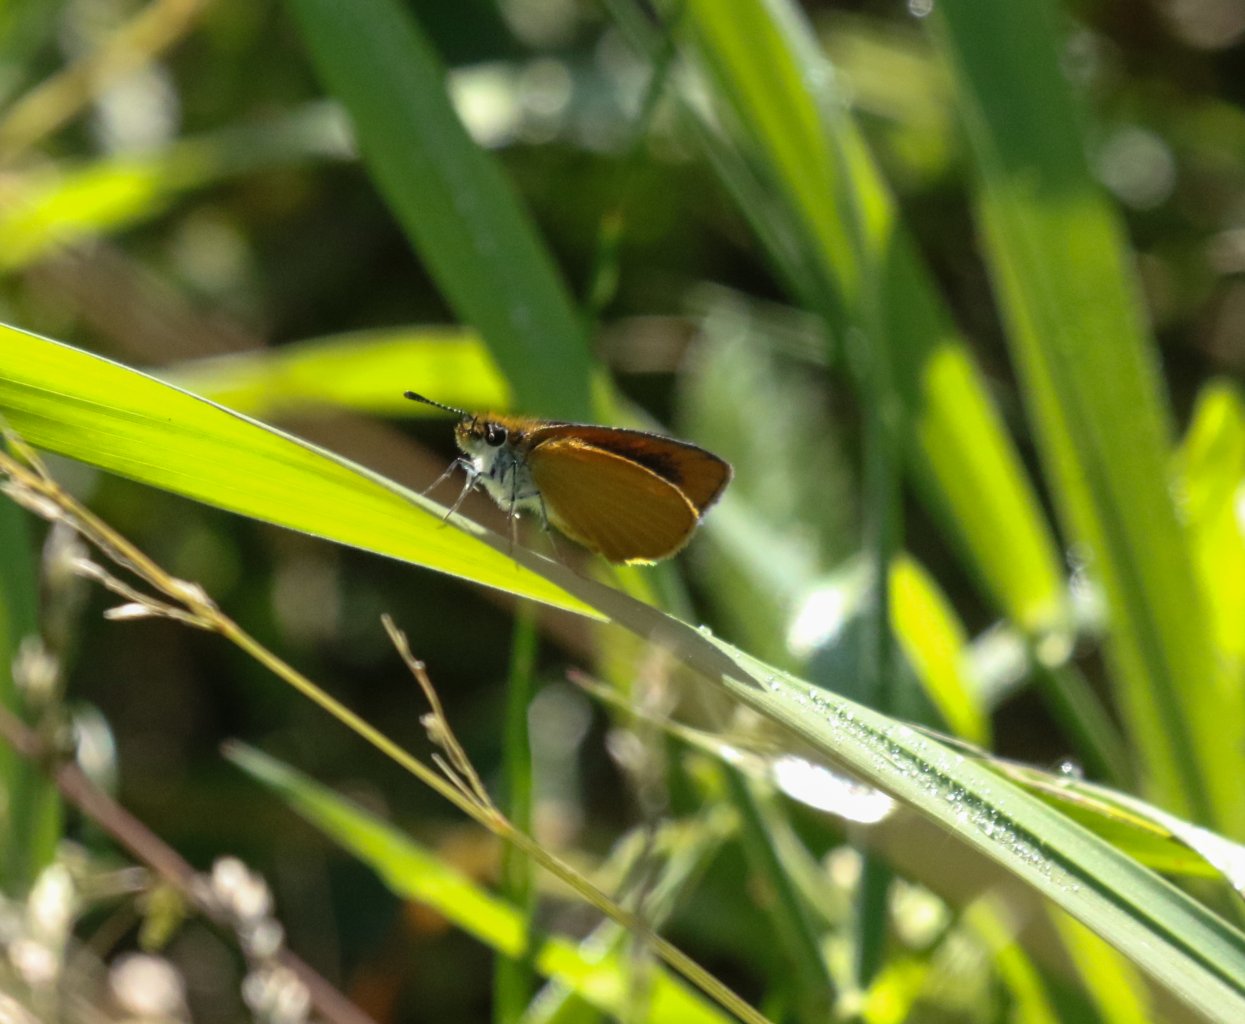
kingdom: Animalia
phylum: Arthropoda
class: Insecta
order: Lepidoptera
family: Hesperiidae
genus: Ancyloxypha
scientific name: Ancyloxypha numitor
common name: Least Skipper
